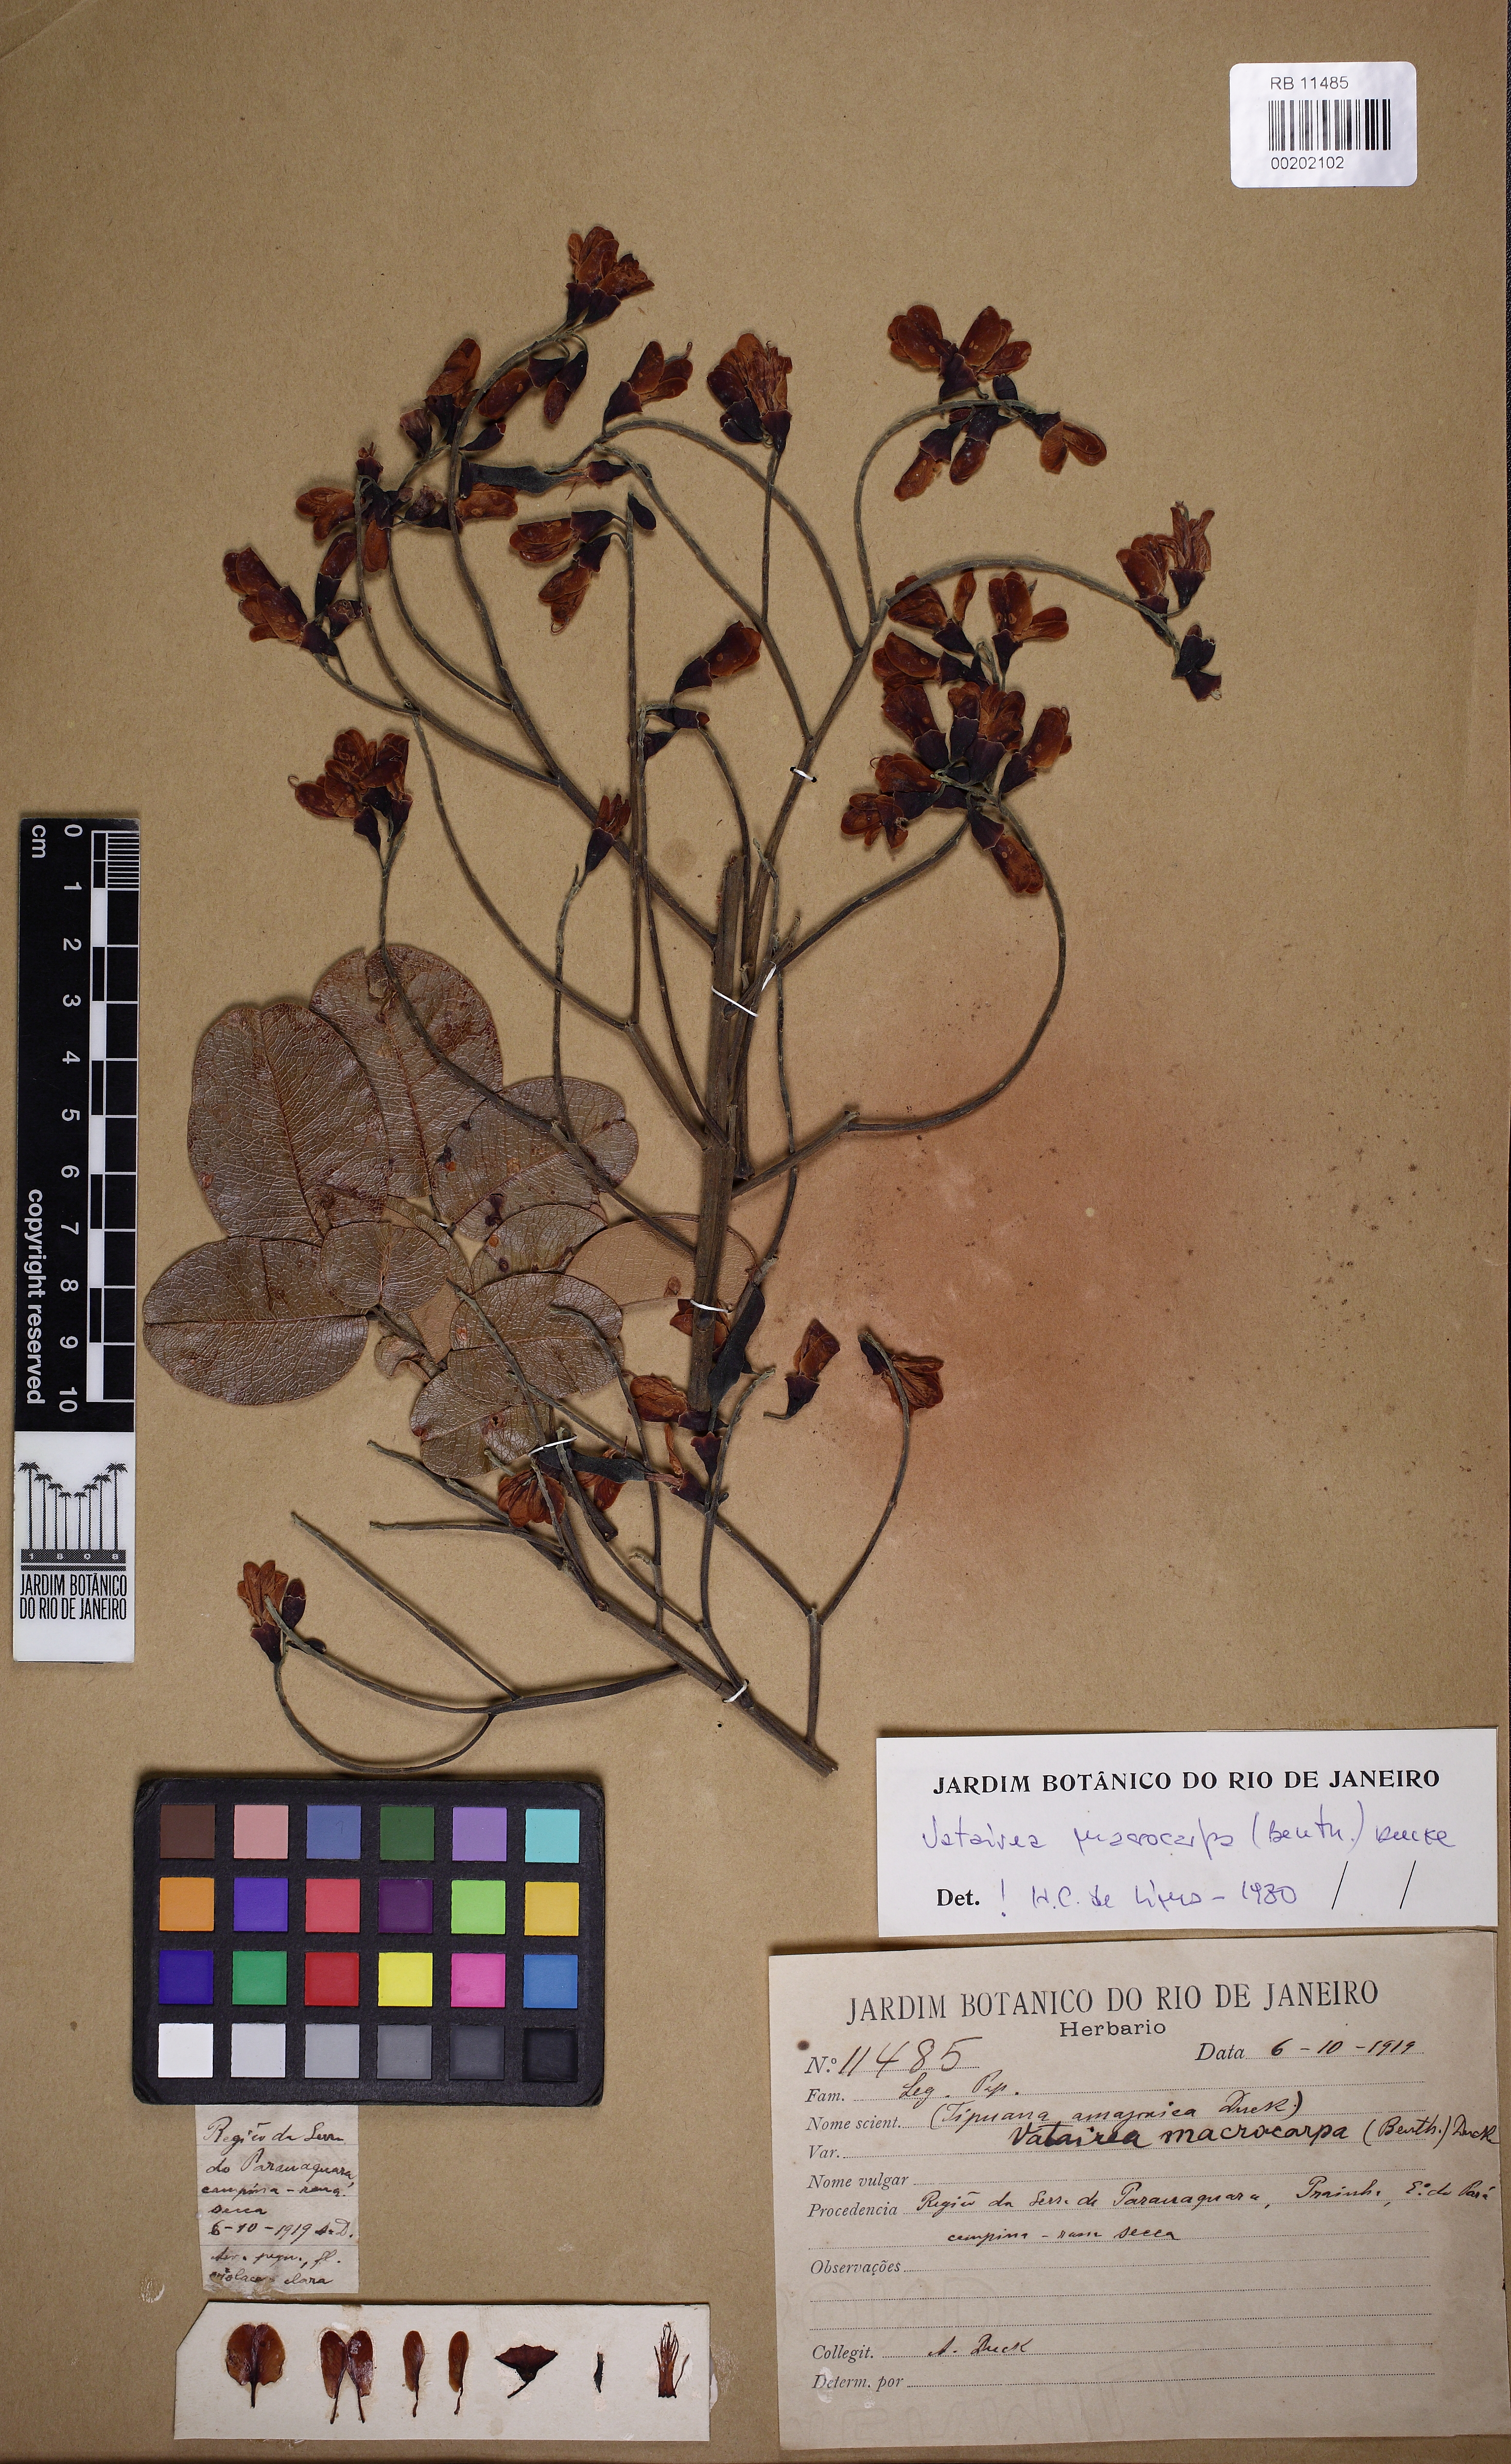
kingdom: Plantae
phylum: Tracheophyta
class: Magnoliopsida
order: Fabales
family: Fabaceae
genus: Vatairea
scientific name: Vatairea macrocarpa
